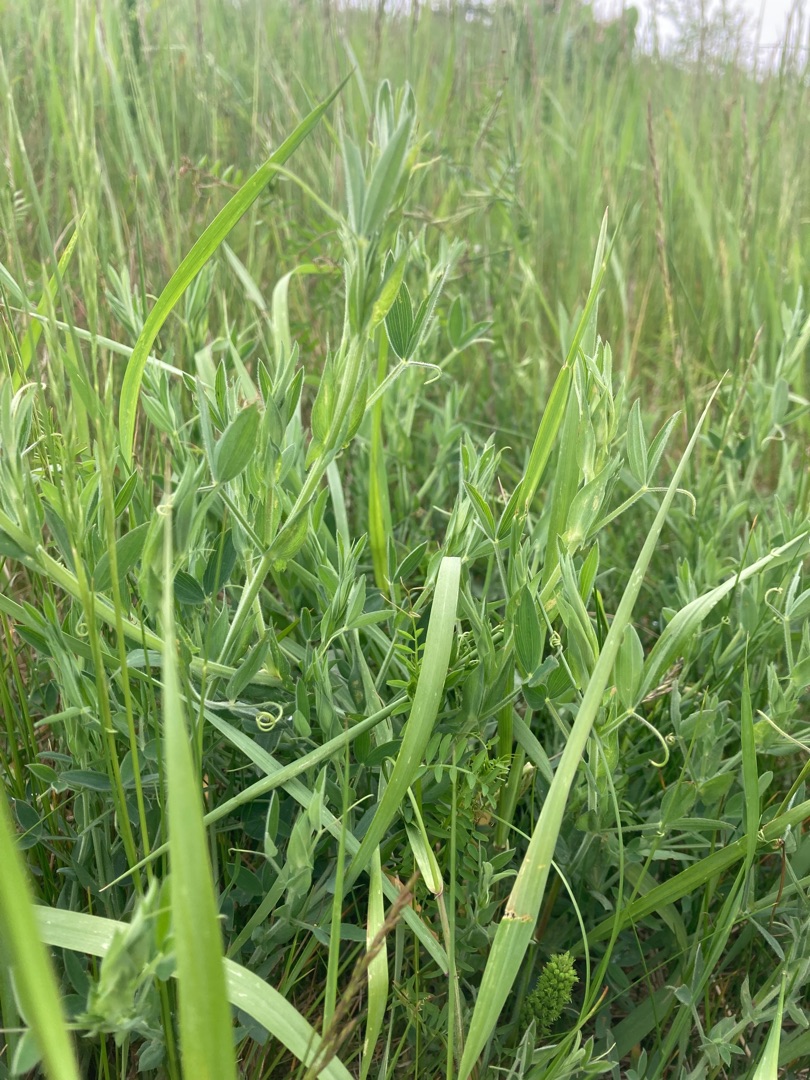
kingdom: Plantae
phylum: Tracheophyta
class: Magnoliopsida
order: Fabales
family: Fabaceae
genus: Lathyrus
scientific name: Lathyrus pratensis
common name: Gul fladbælg
